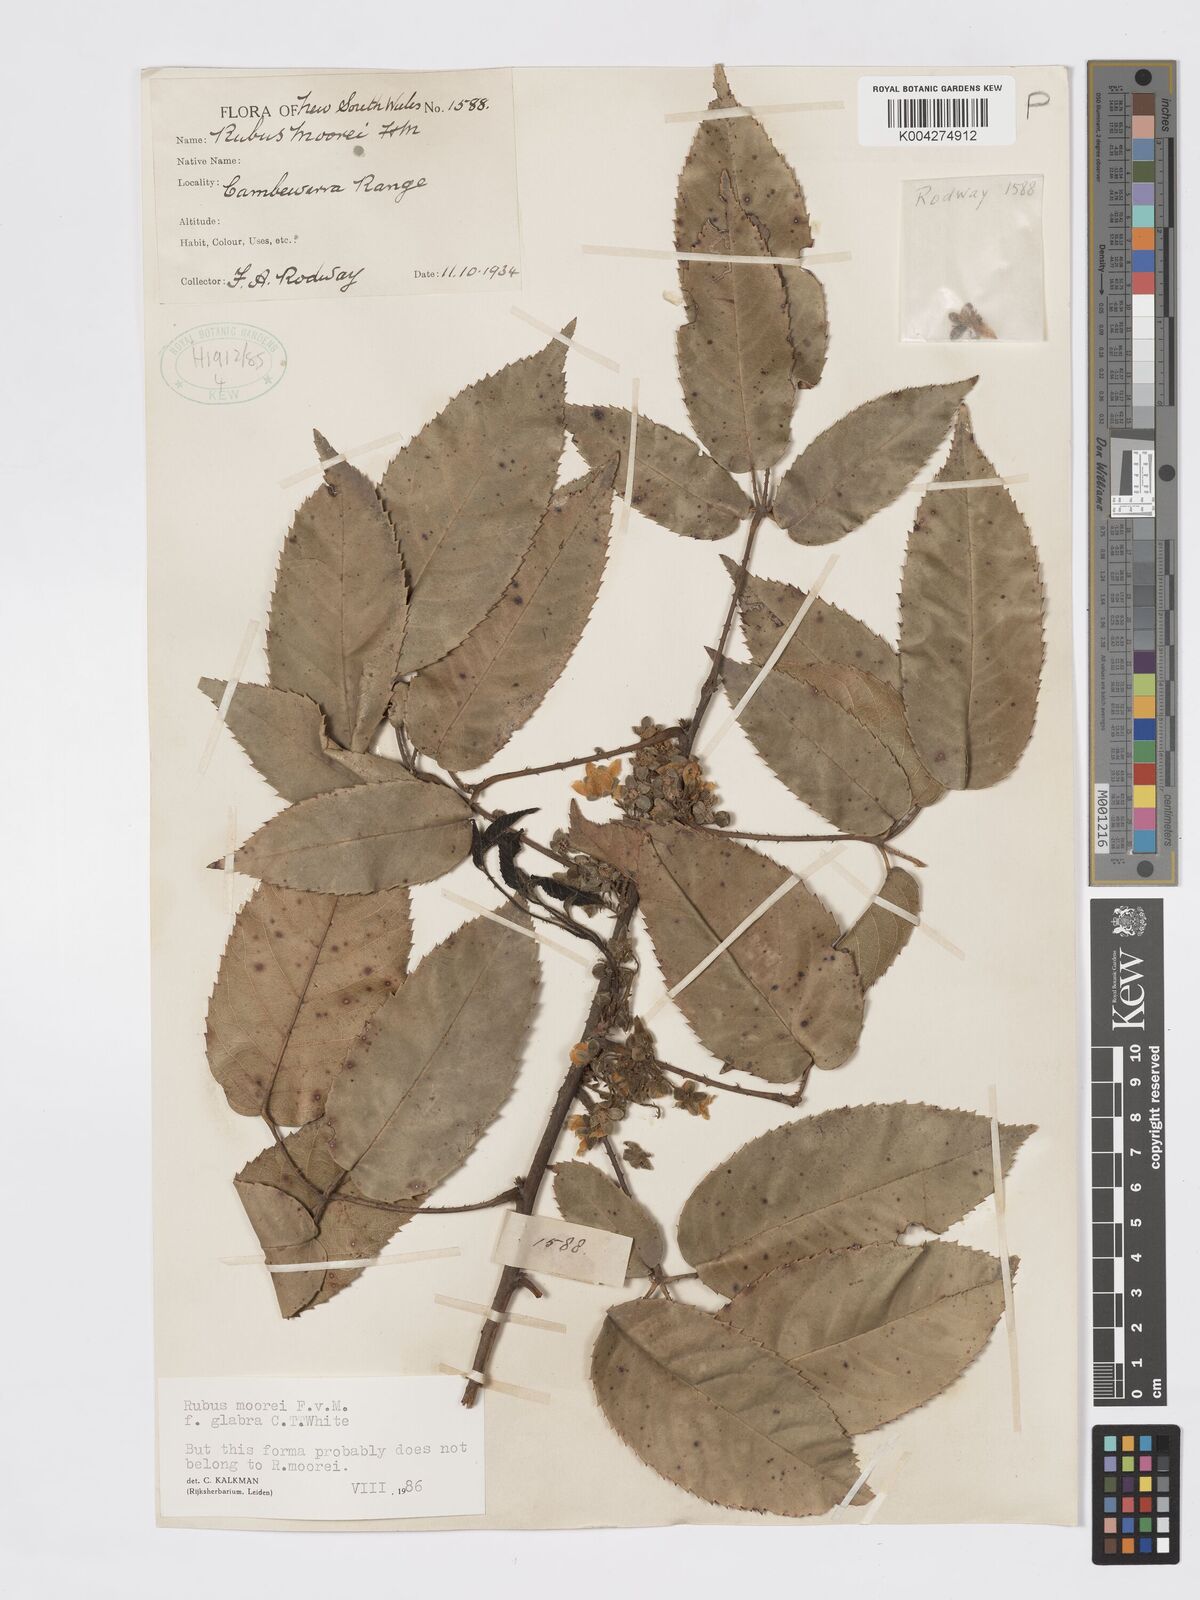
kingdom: Plantae
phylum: Tracheophyta
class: Magnoliopsida
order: Rosales
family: Rosaceae
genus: Rubus
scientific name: Rubus moorei
